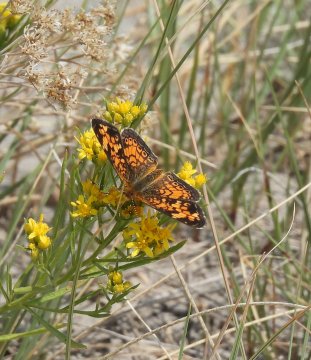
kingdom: Animalia
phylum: Arthropoda
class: Insecta
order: Lepidoptera
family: Nymphalidae
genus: Phyciodes
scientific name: Phyciodes tharos
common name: Northern Crescent
